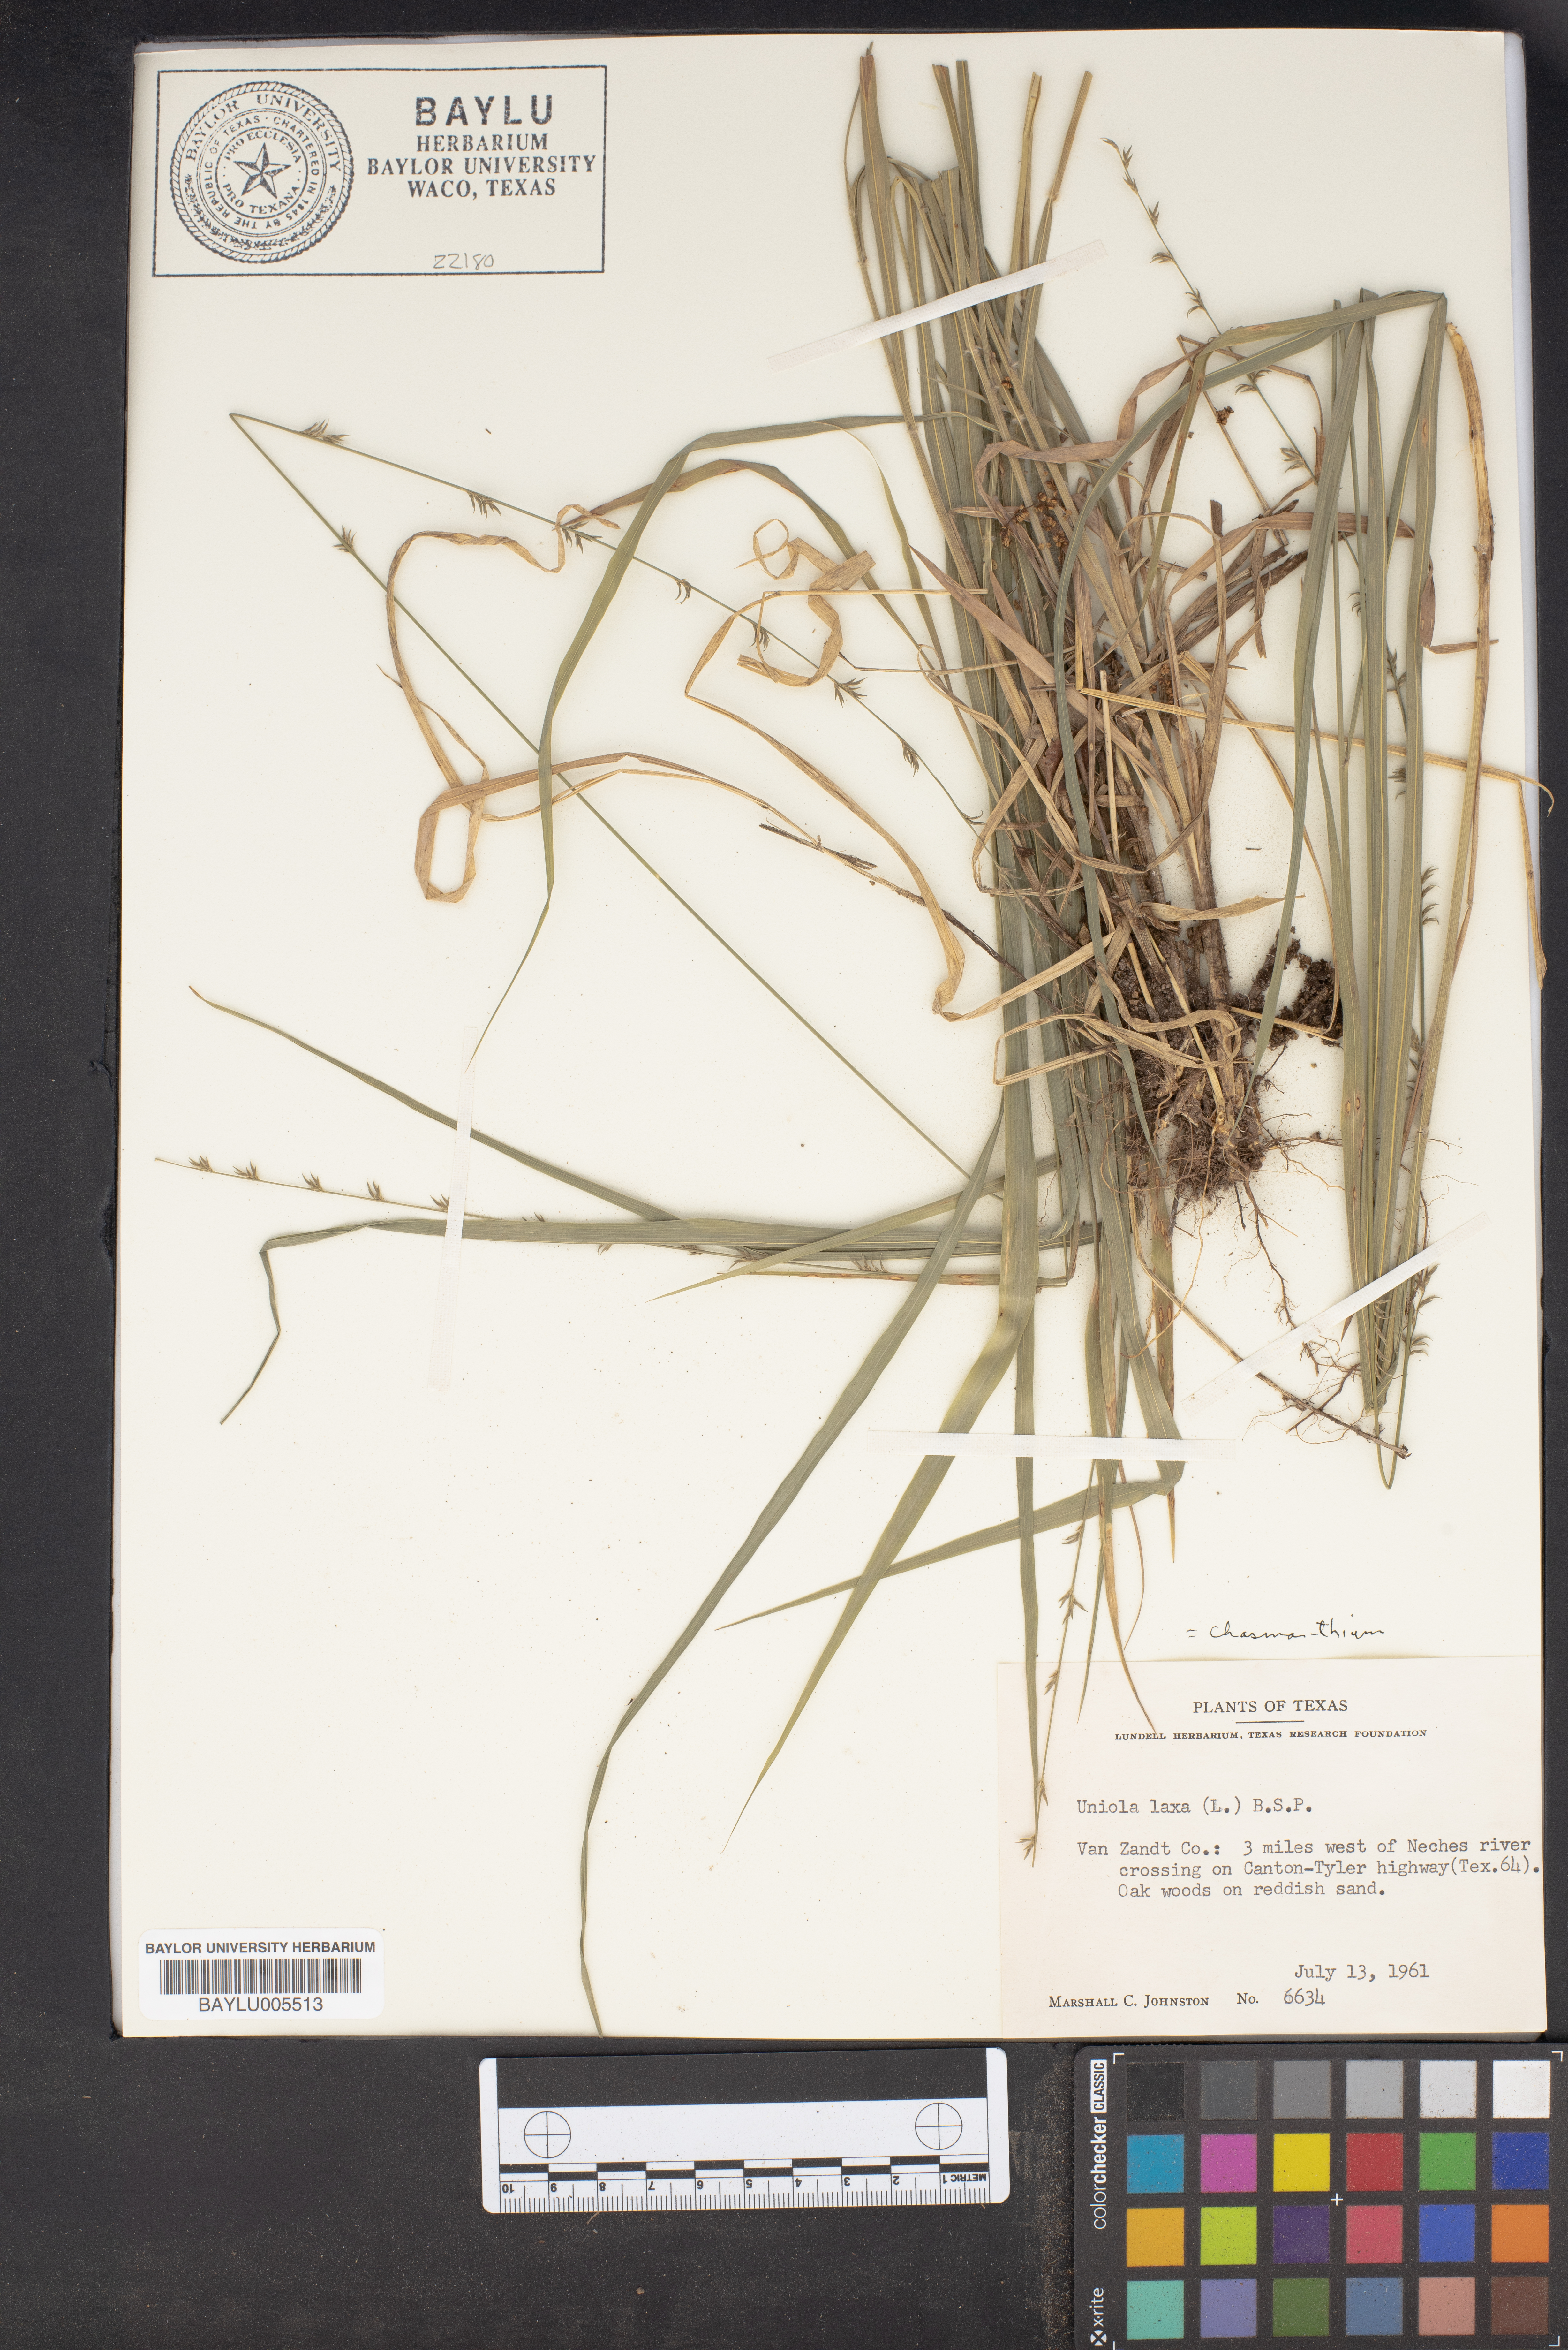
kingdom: Plantae
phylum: Tracheophyta
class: Liliopsida
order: Poales
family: Poaceae
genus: Chasmanthium
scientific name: Chasmanthium laxum
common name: Slender chasmanthium
